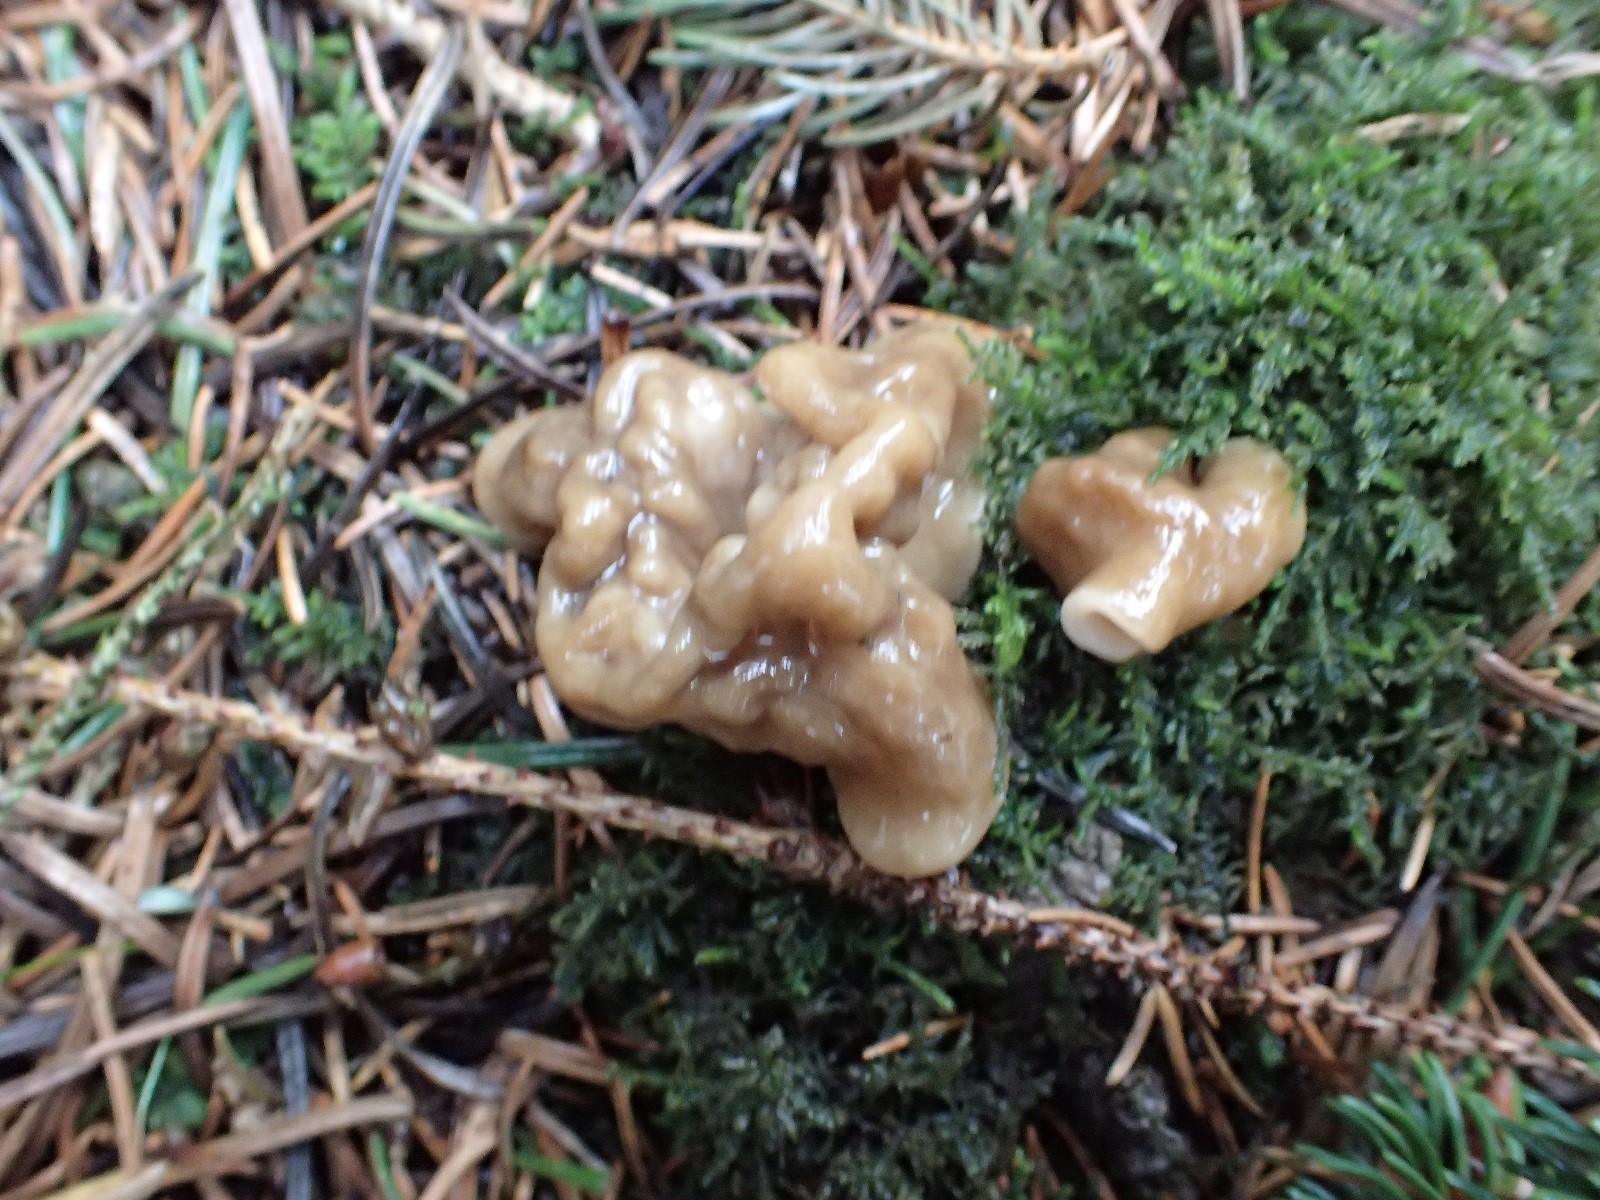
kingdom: Fungi
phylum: Ascomycota
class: Pezizomycetes
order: Pezizales
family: Discinaceae
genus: Gyromitra
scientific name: Gyromitra gigas
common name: kæmpe-stenmorkel
